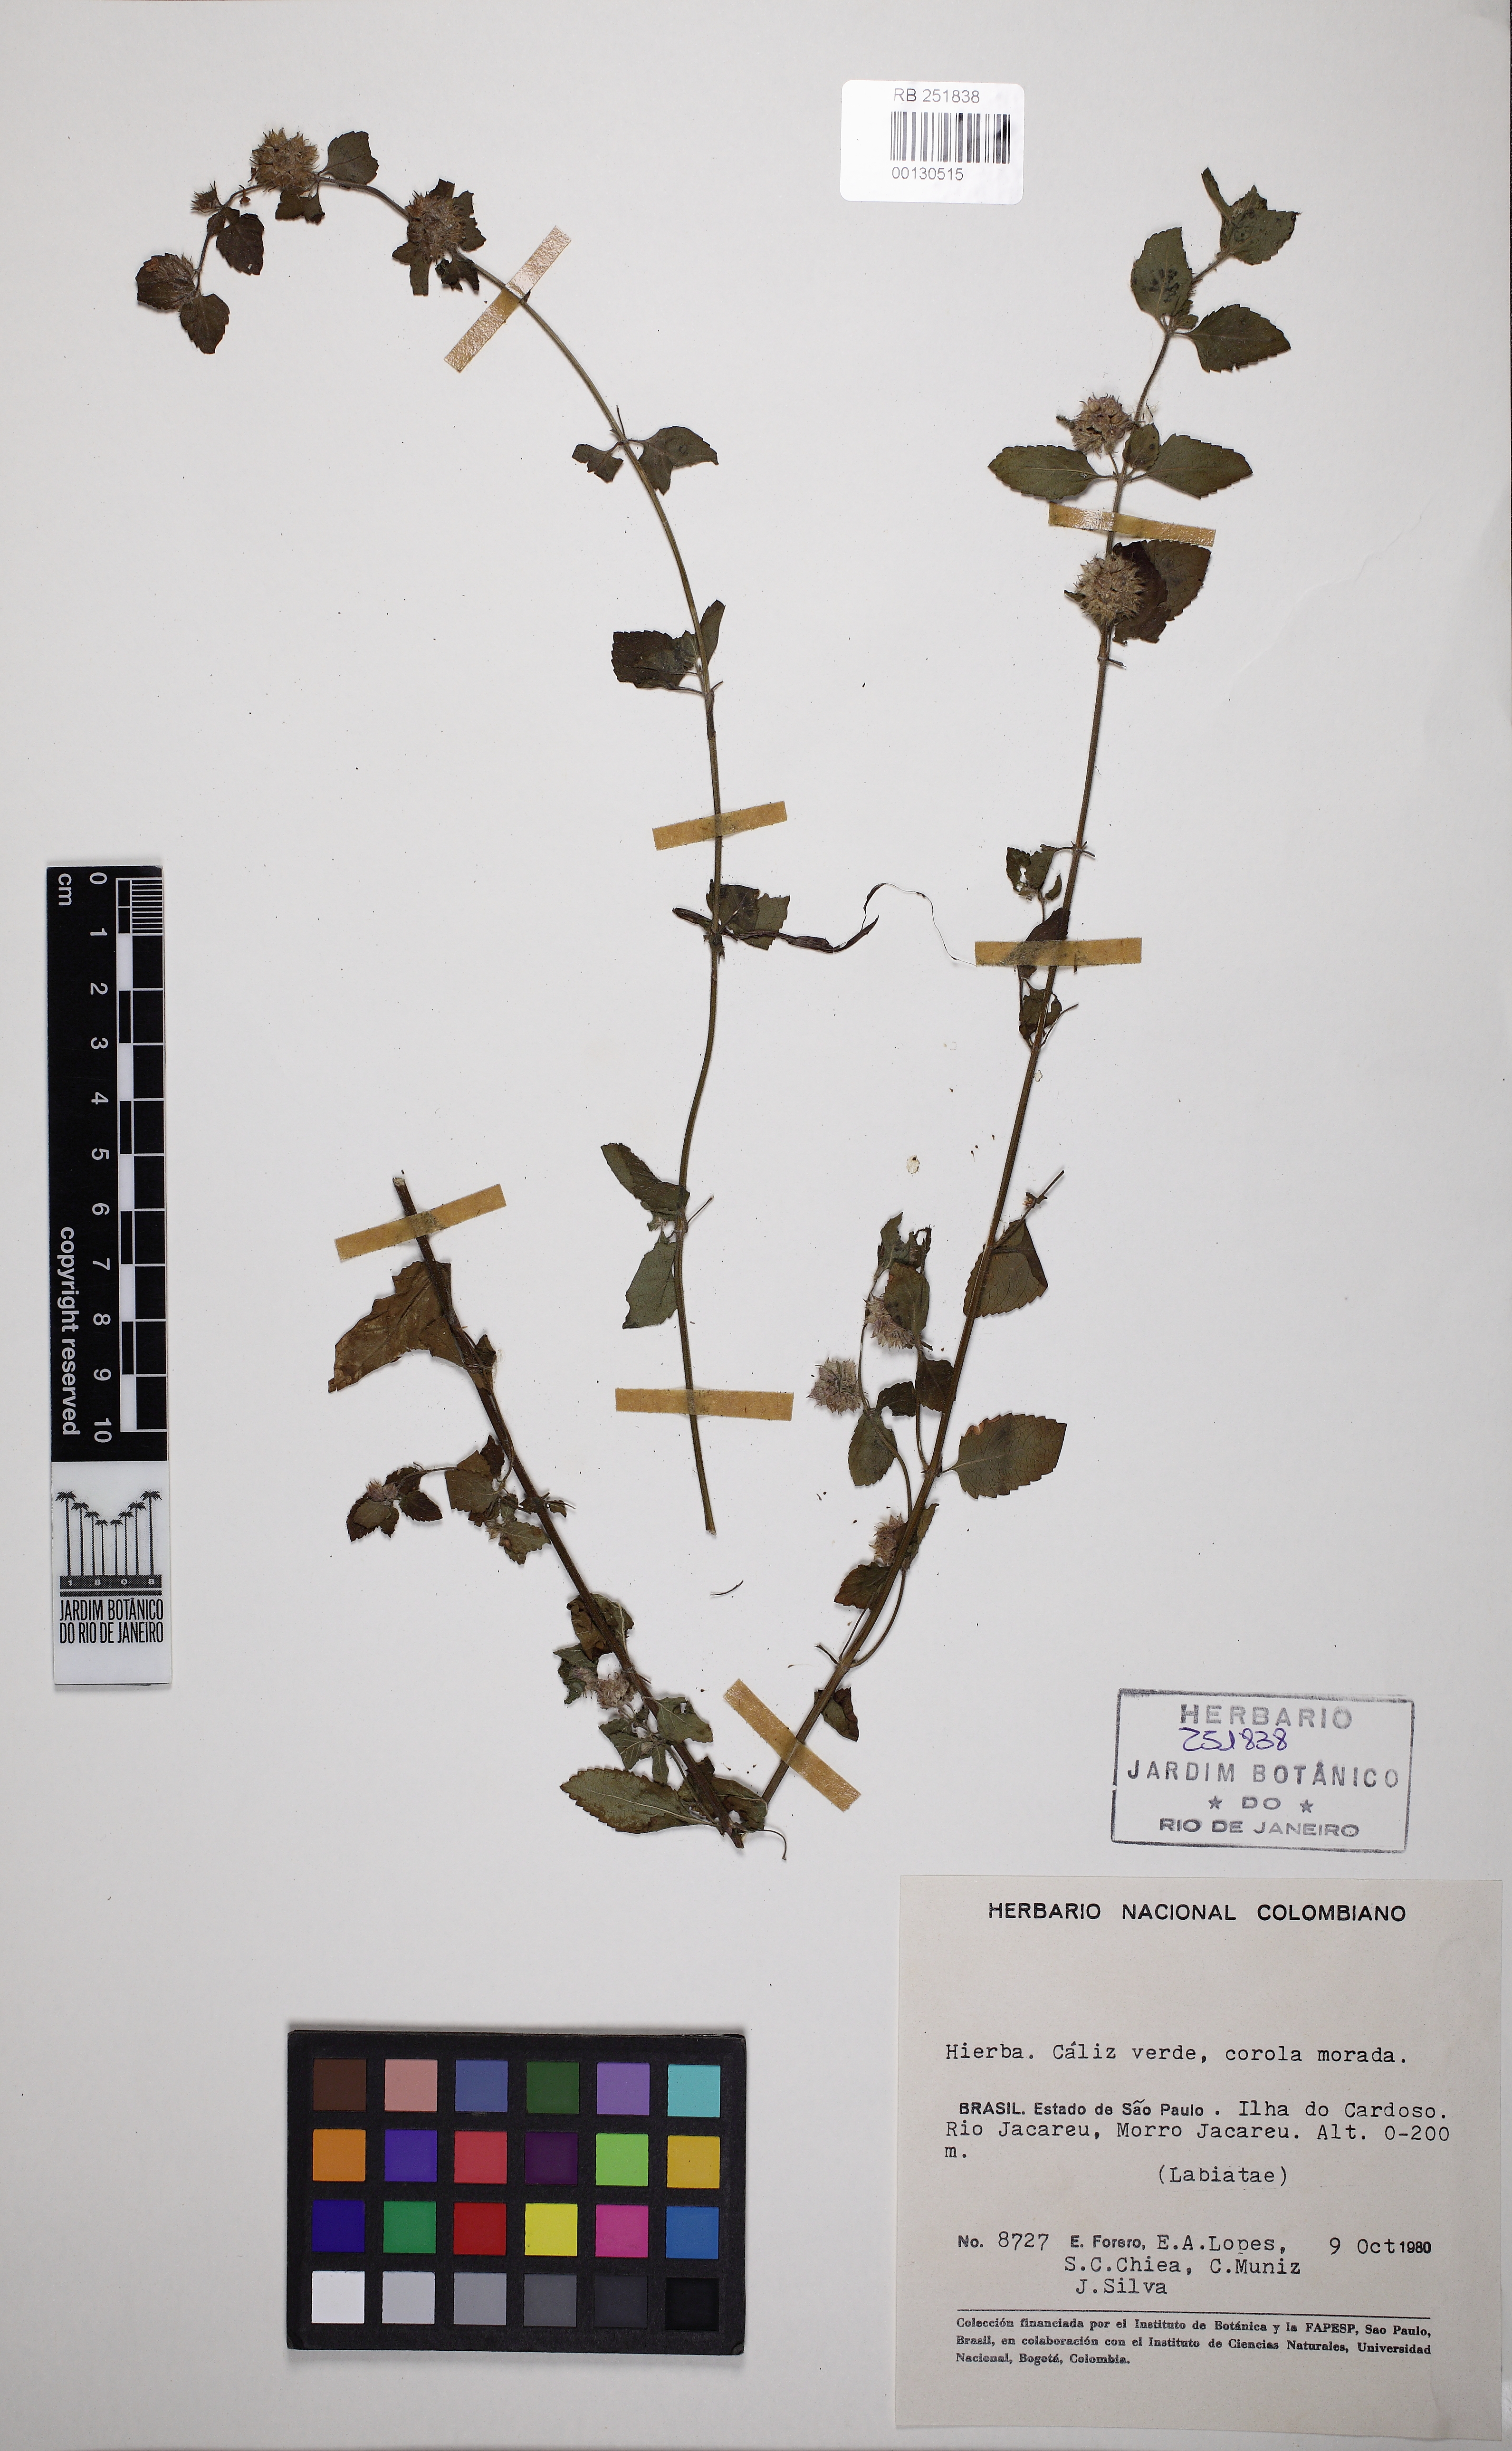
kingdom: Plantae
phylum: Tracheophyta
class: Magnoliopsida
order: Lamiales
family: Lamiaceae
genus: Marsypianthes
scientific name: Marsypianthes
